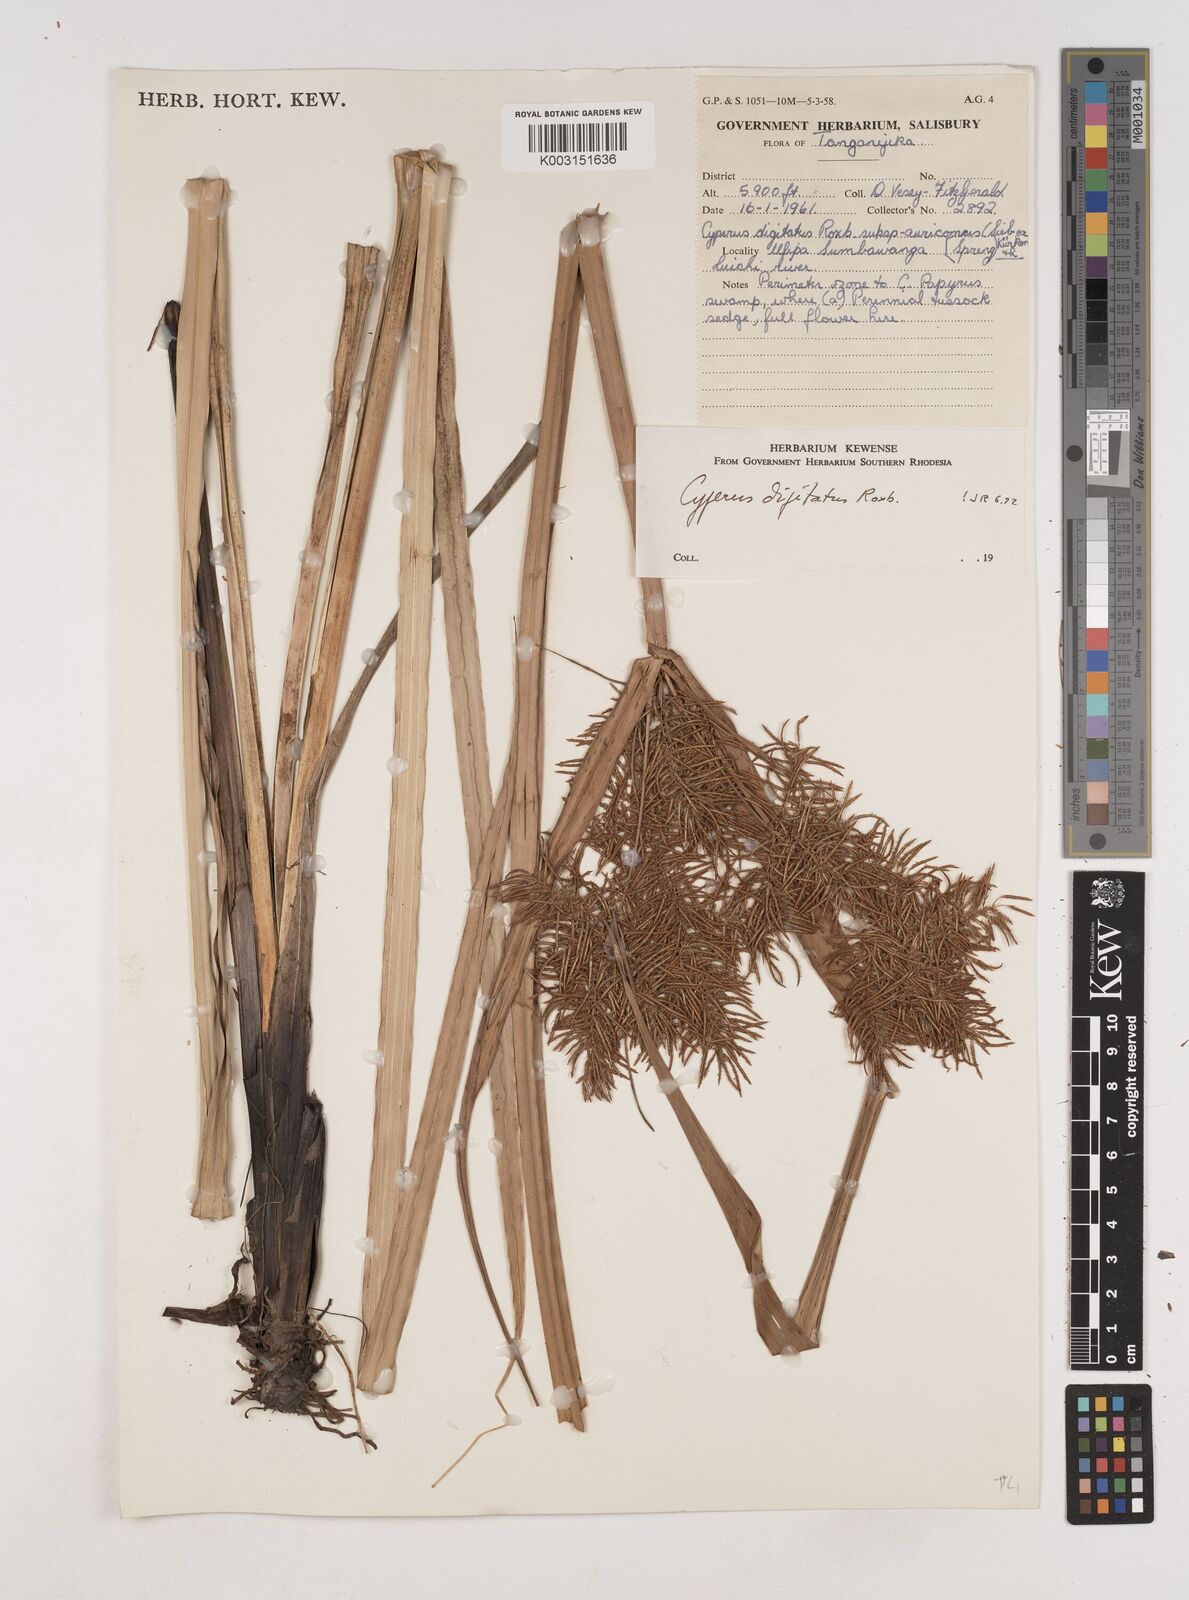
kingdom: Plantae
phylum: Tracheophyta
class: Liliopsida
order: Poales
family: Cyperaceae
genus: Cyperus
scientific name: Cyperus digitatus
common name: Finger flatsedge
